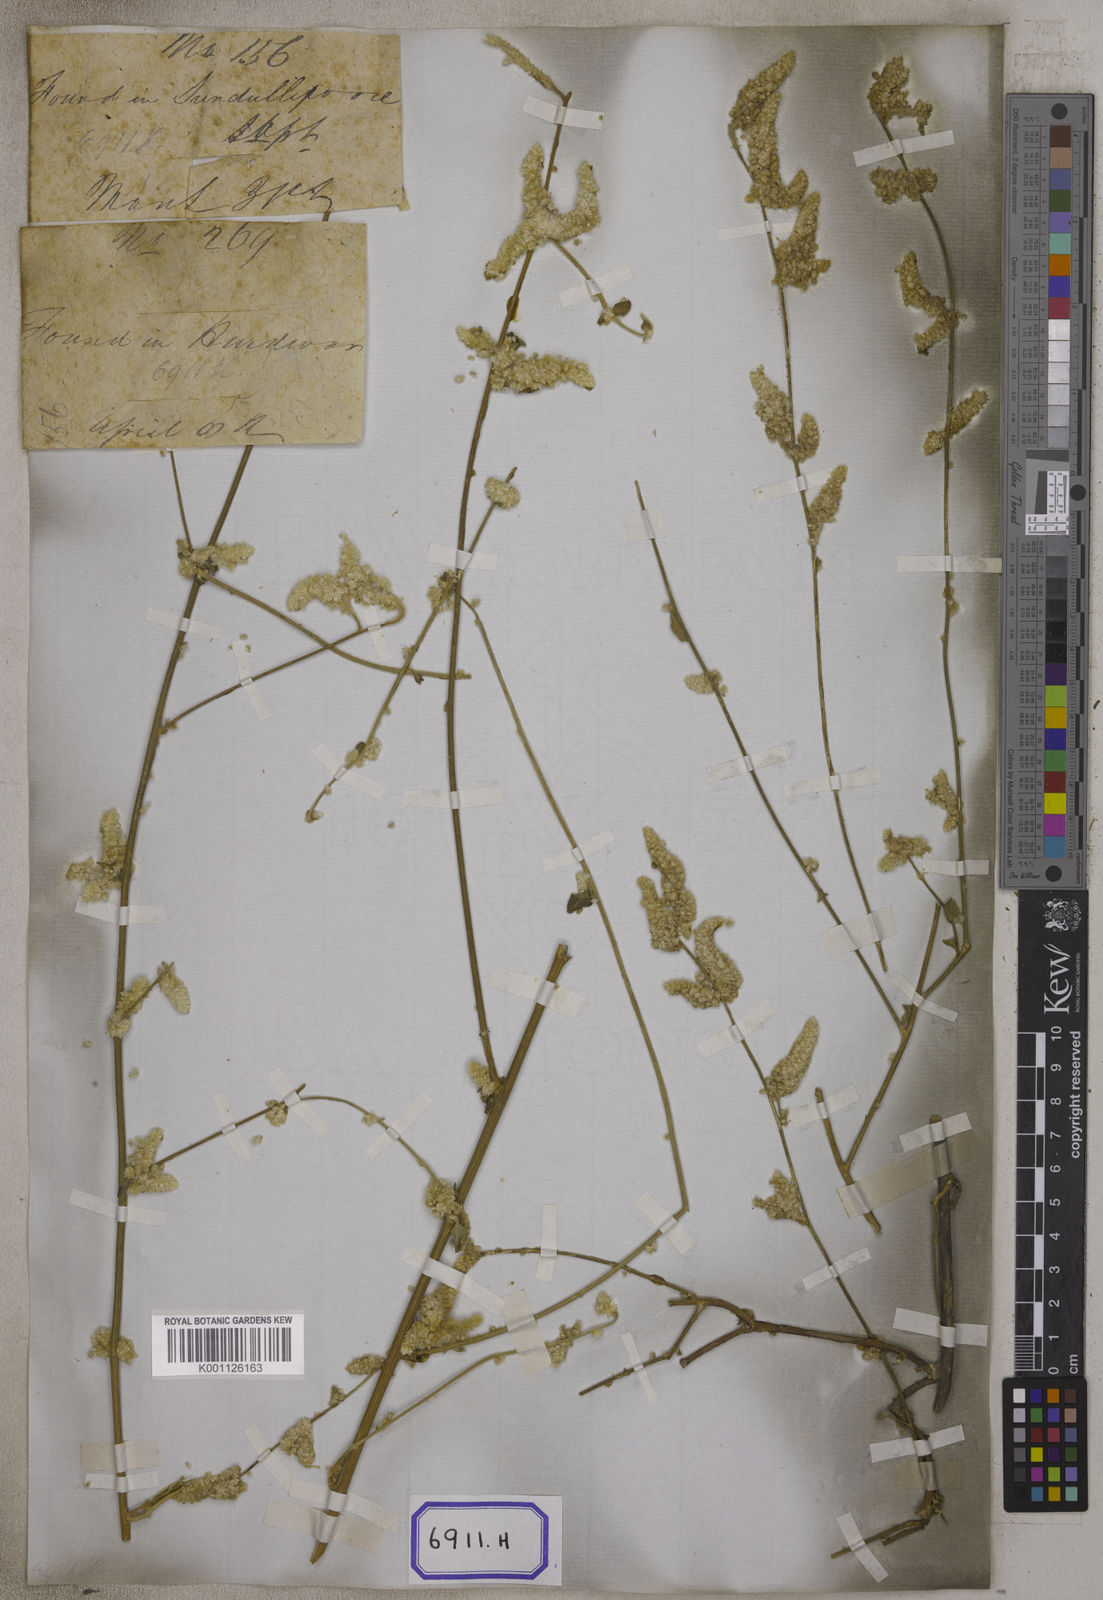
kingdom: Plantae
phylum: Tracheophyta
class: Magnoliopsida
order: Caryophyllales
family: Amaranthaceae
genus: Ouret
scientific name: Ouret sanguinolenta
